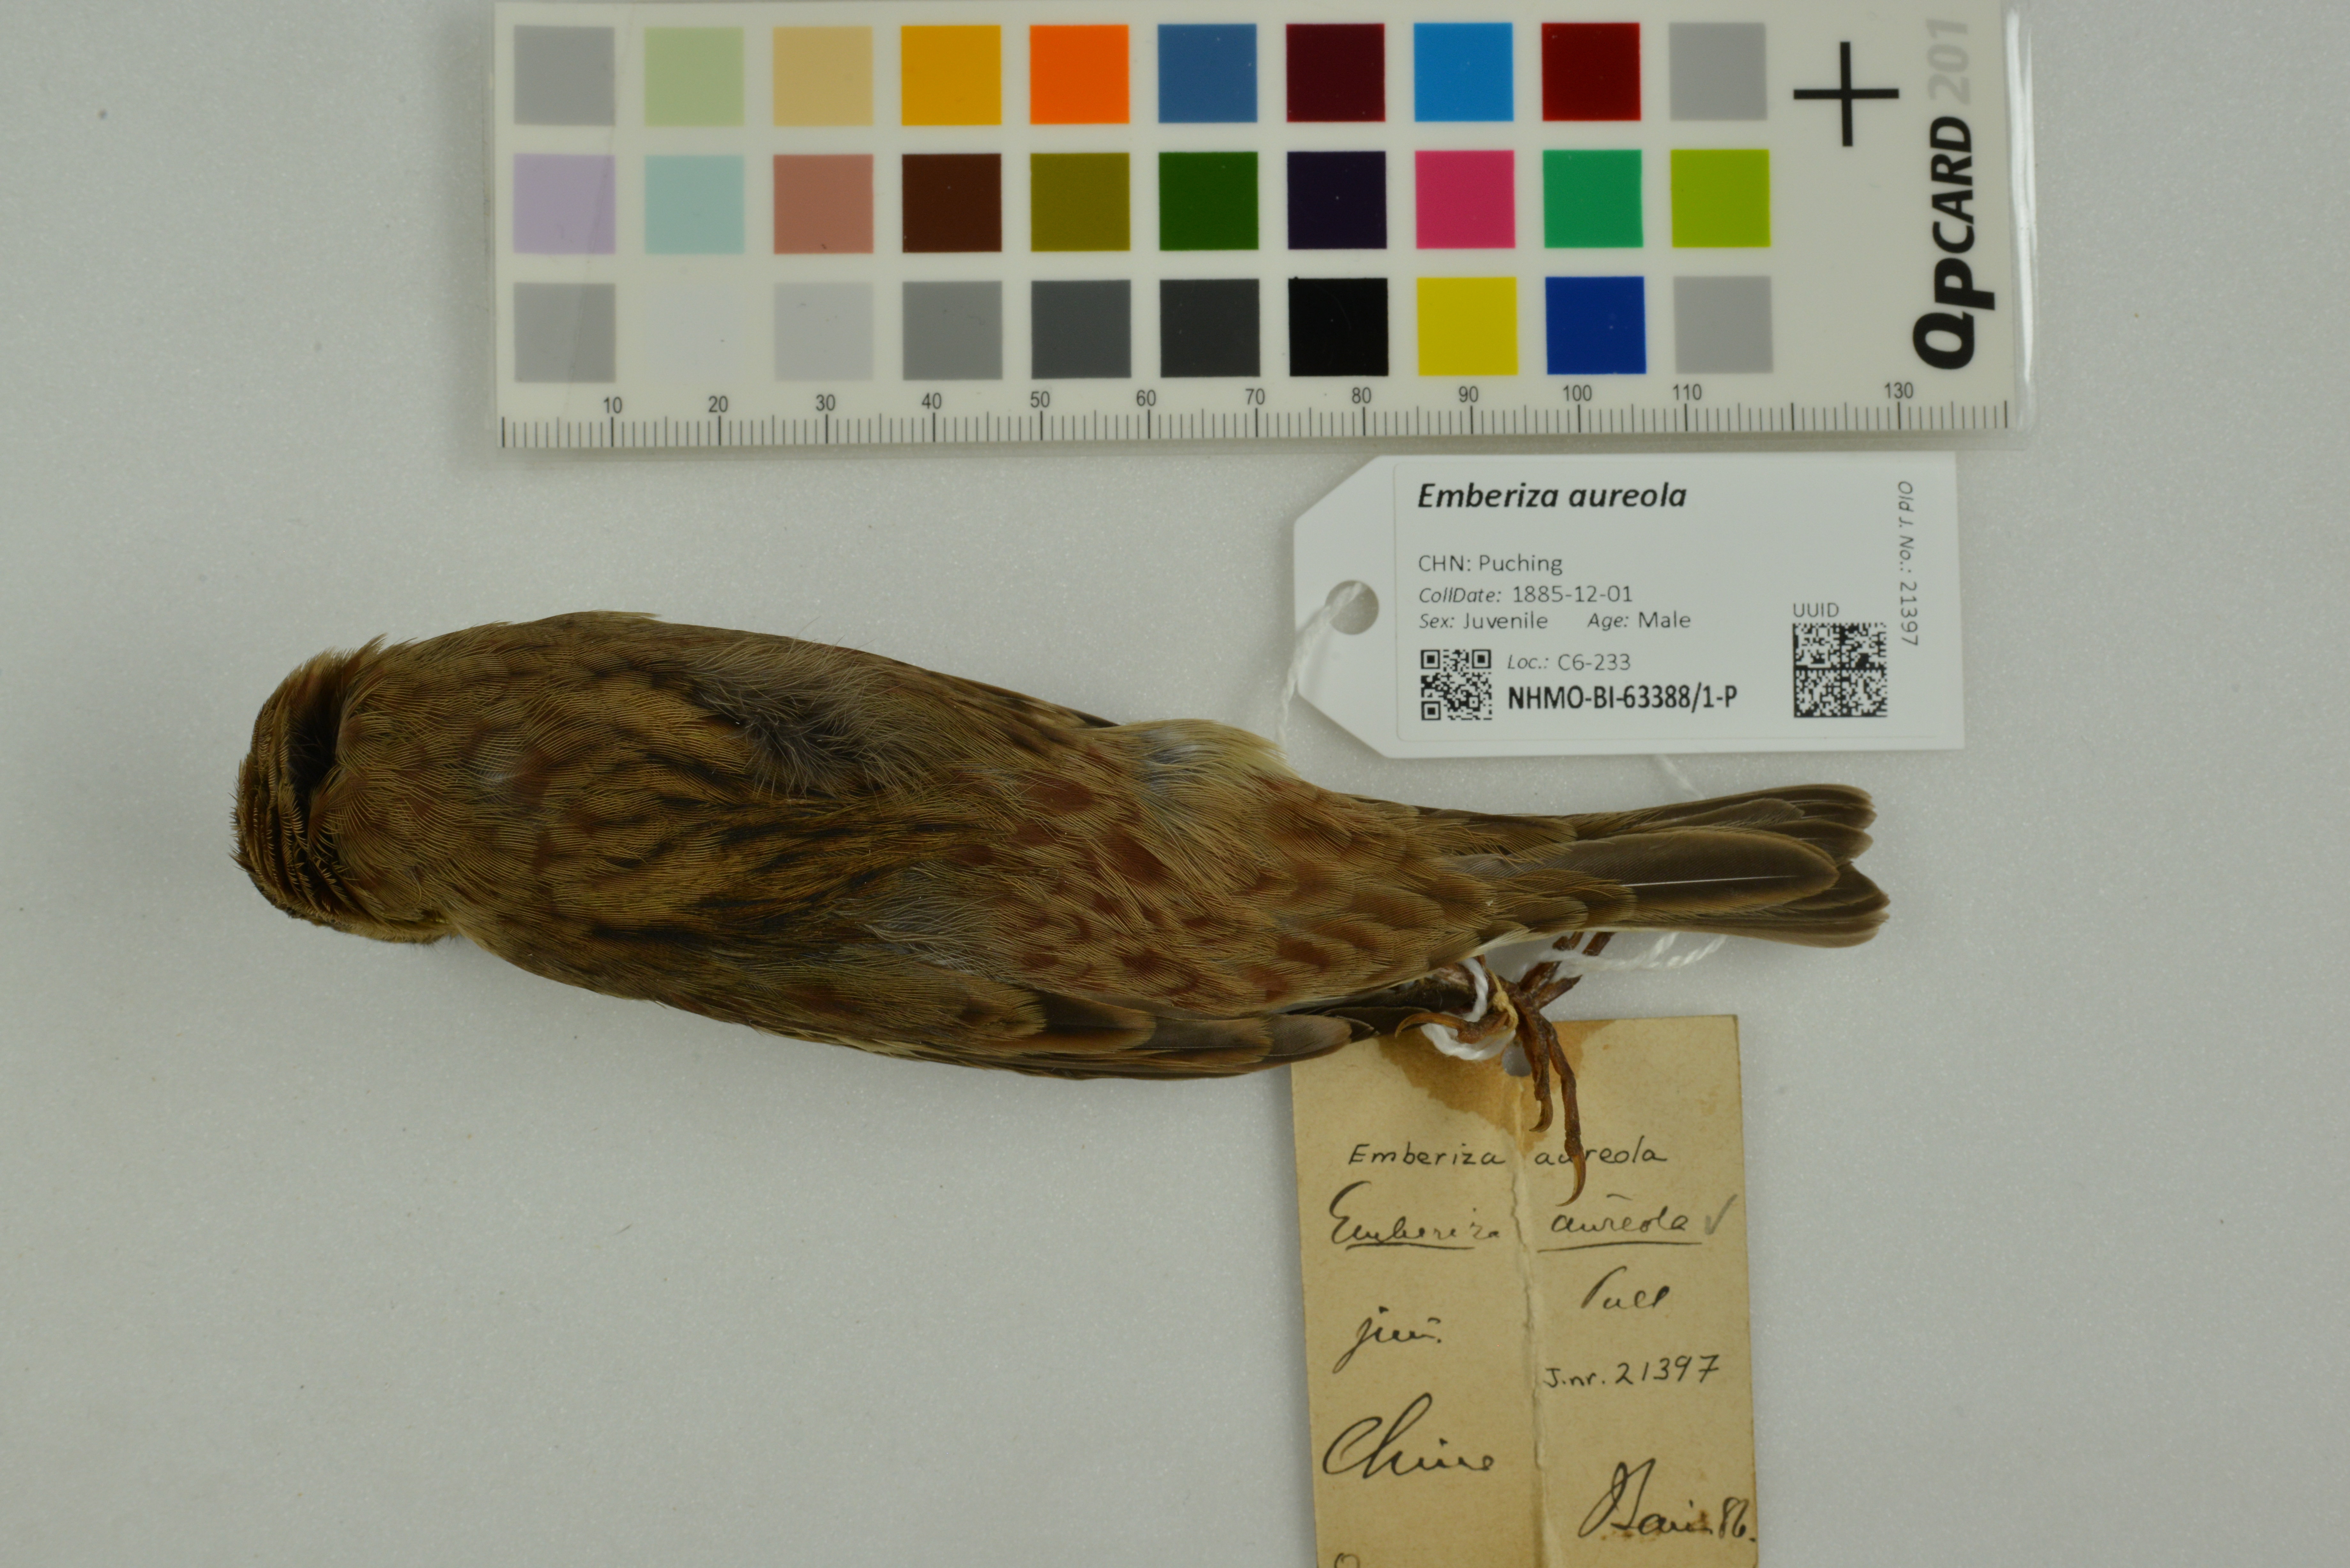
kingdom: Animalia
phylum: Chordata
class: Aves
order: Passeriformes
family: Emberizidae
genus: Emberiza
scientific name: Emberiza aureola
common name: Yellow-breasted bunting
